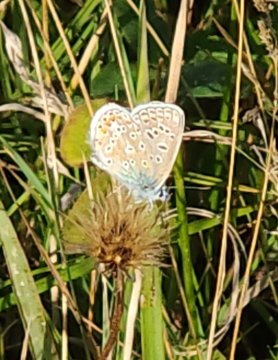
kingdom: Animalia
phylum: Arthropoda
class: Insecta
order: Lepidoptera
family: Lycaenidae
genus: Polyommatus
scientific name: Polyommatus icarus
